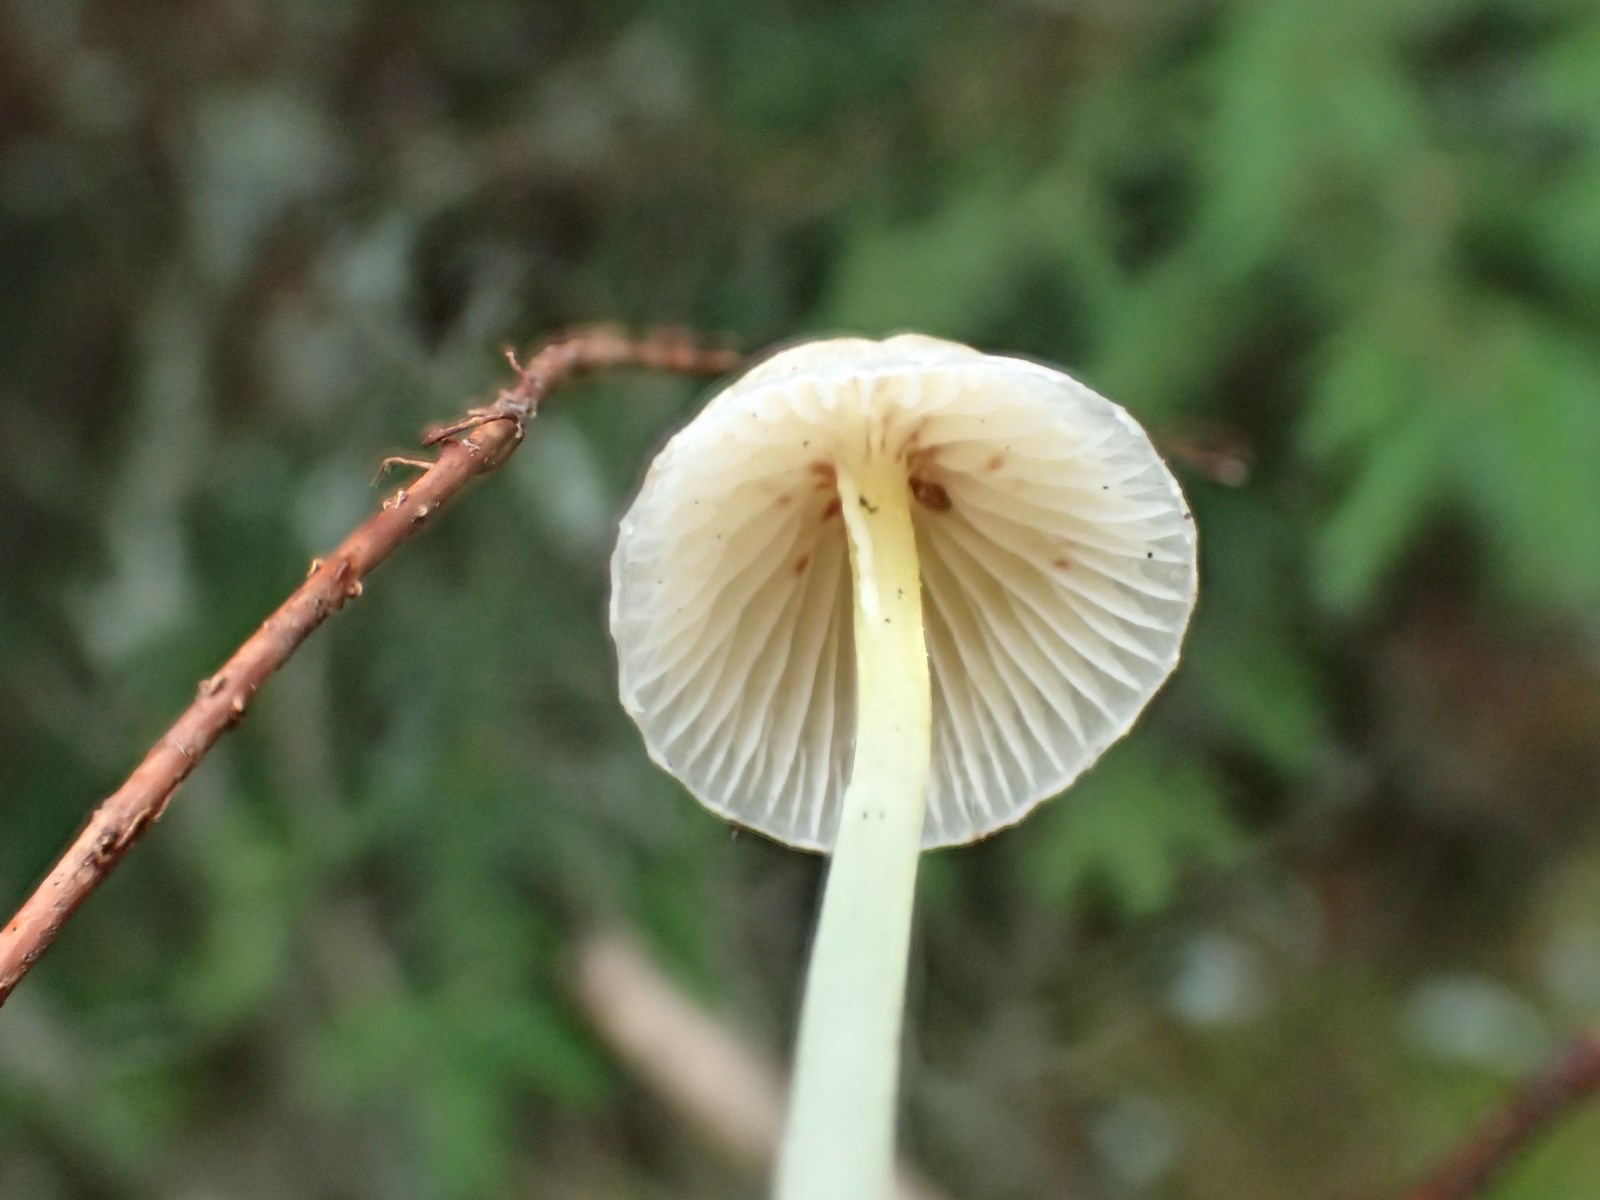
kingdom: Fungi
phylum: Basidiomycota
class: Agaricomycetes
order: Agaricales
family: Mycenaceae
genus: Mycena
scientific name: Mycena epipterygia
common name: gulstokket huesvamp
